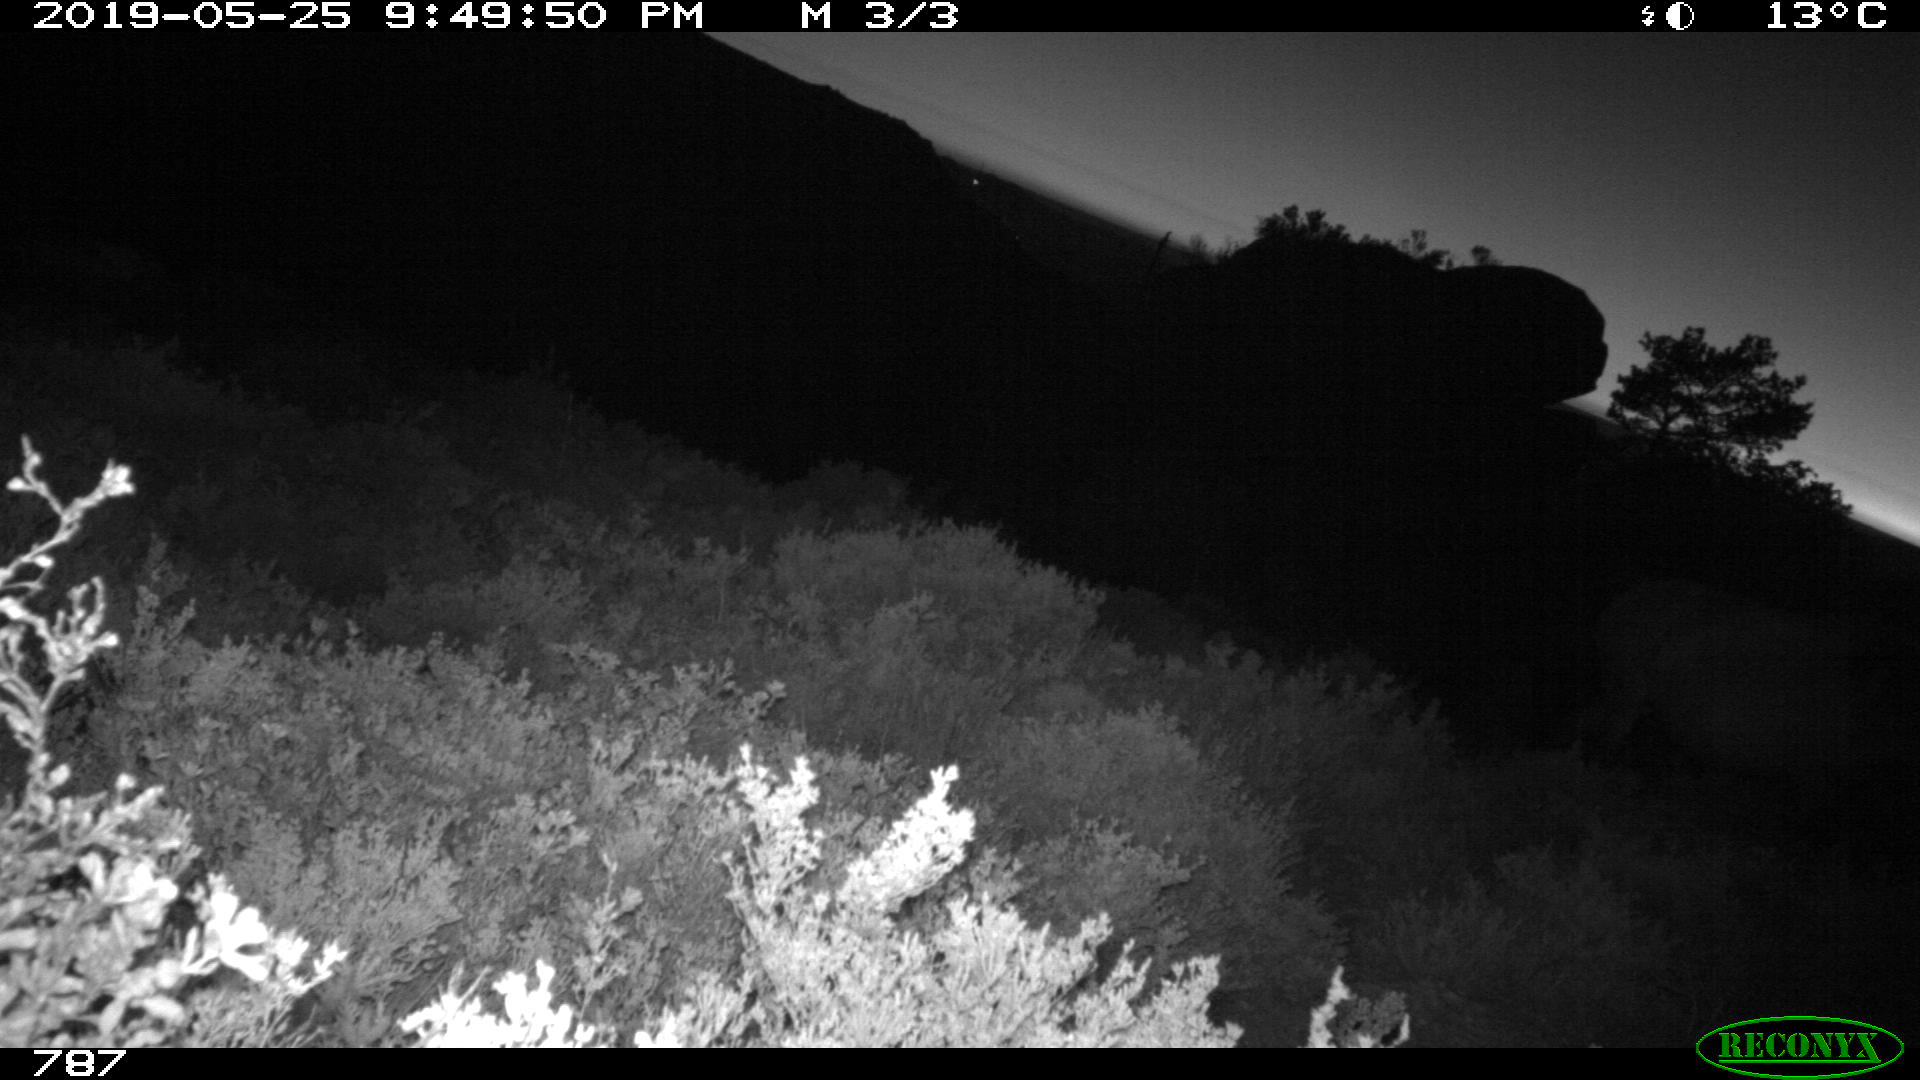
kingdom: Animalia
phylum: Chordata
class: Mammalia
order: Perissodactyla
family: Equidae
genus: Equus
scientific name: Equus caballus
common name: Horse
